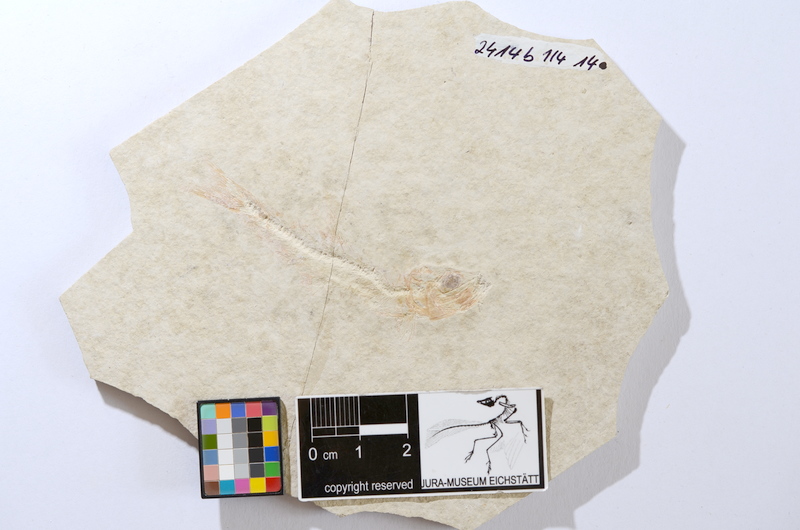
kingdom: Animalia
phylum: Chordata
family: Ascalaboidae
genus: Tharsis
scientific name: Tharsis dubius
